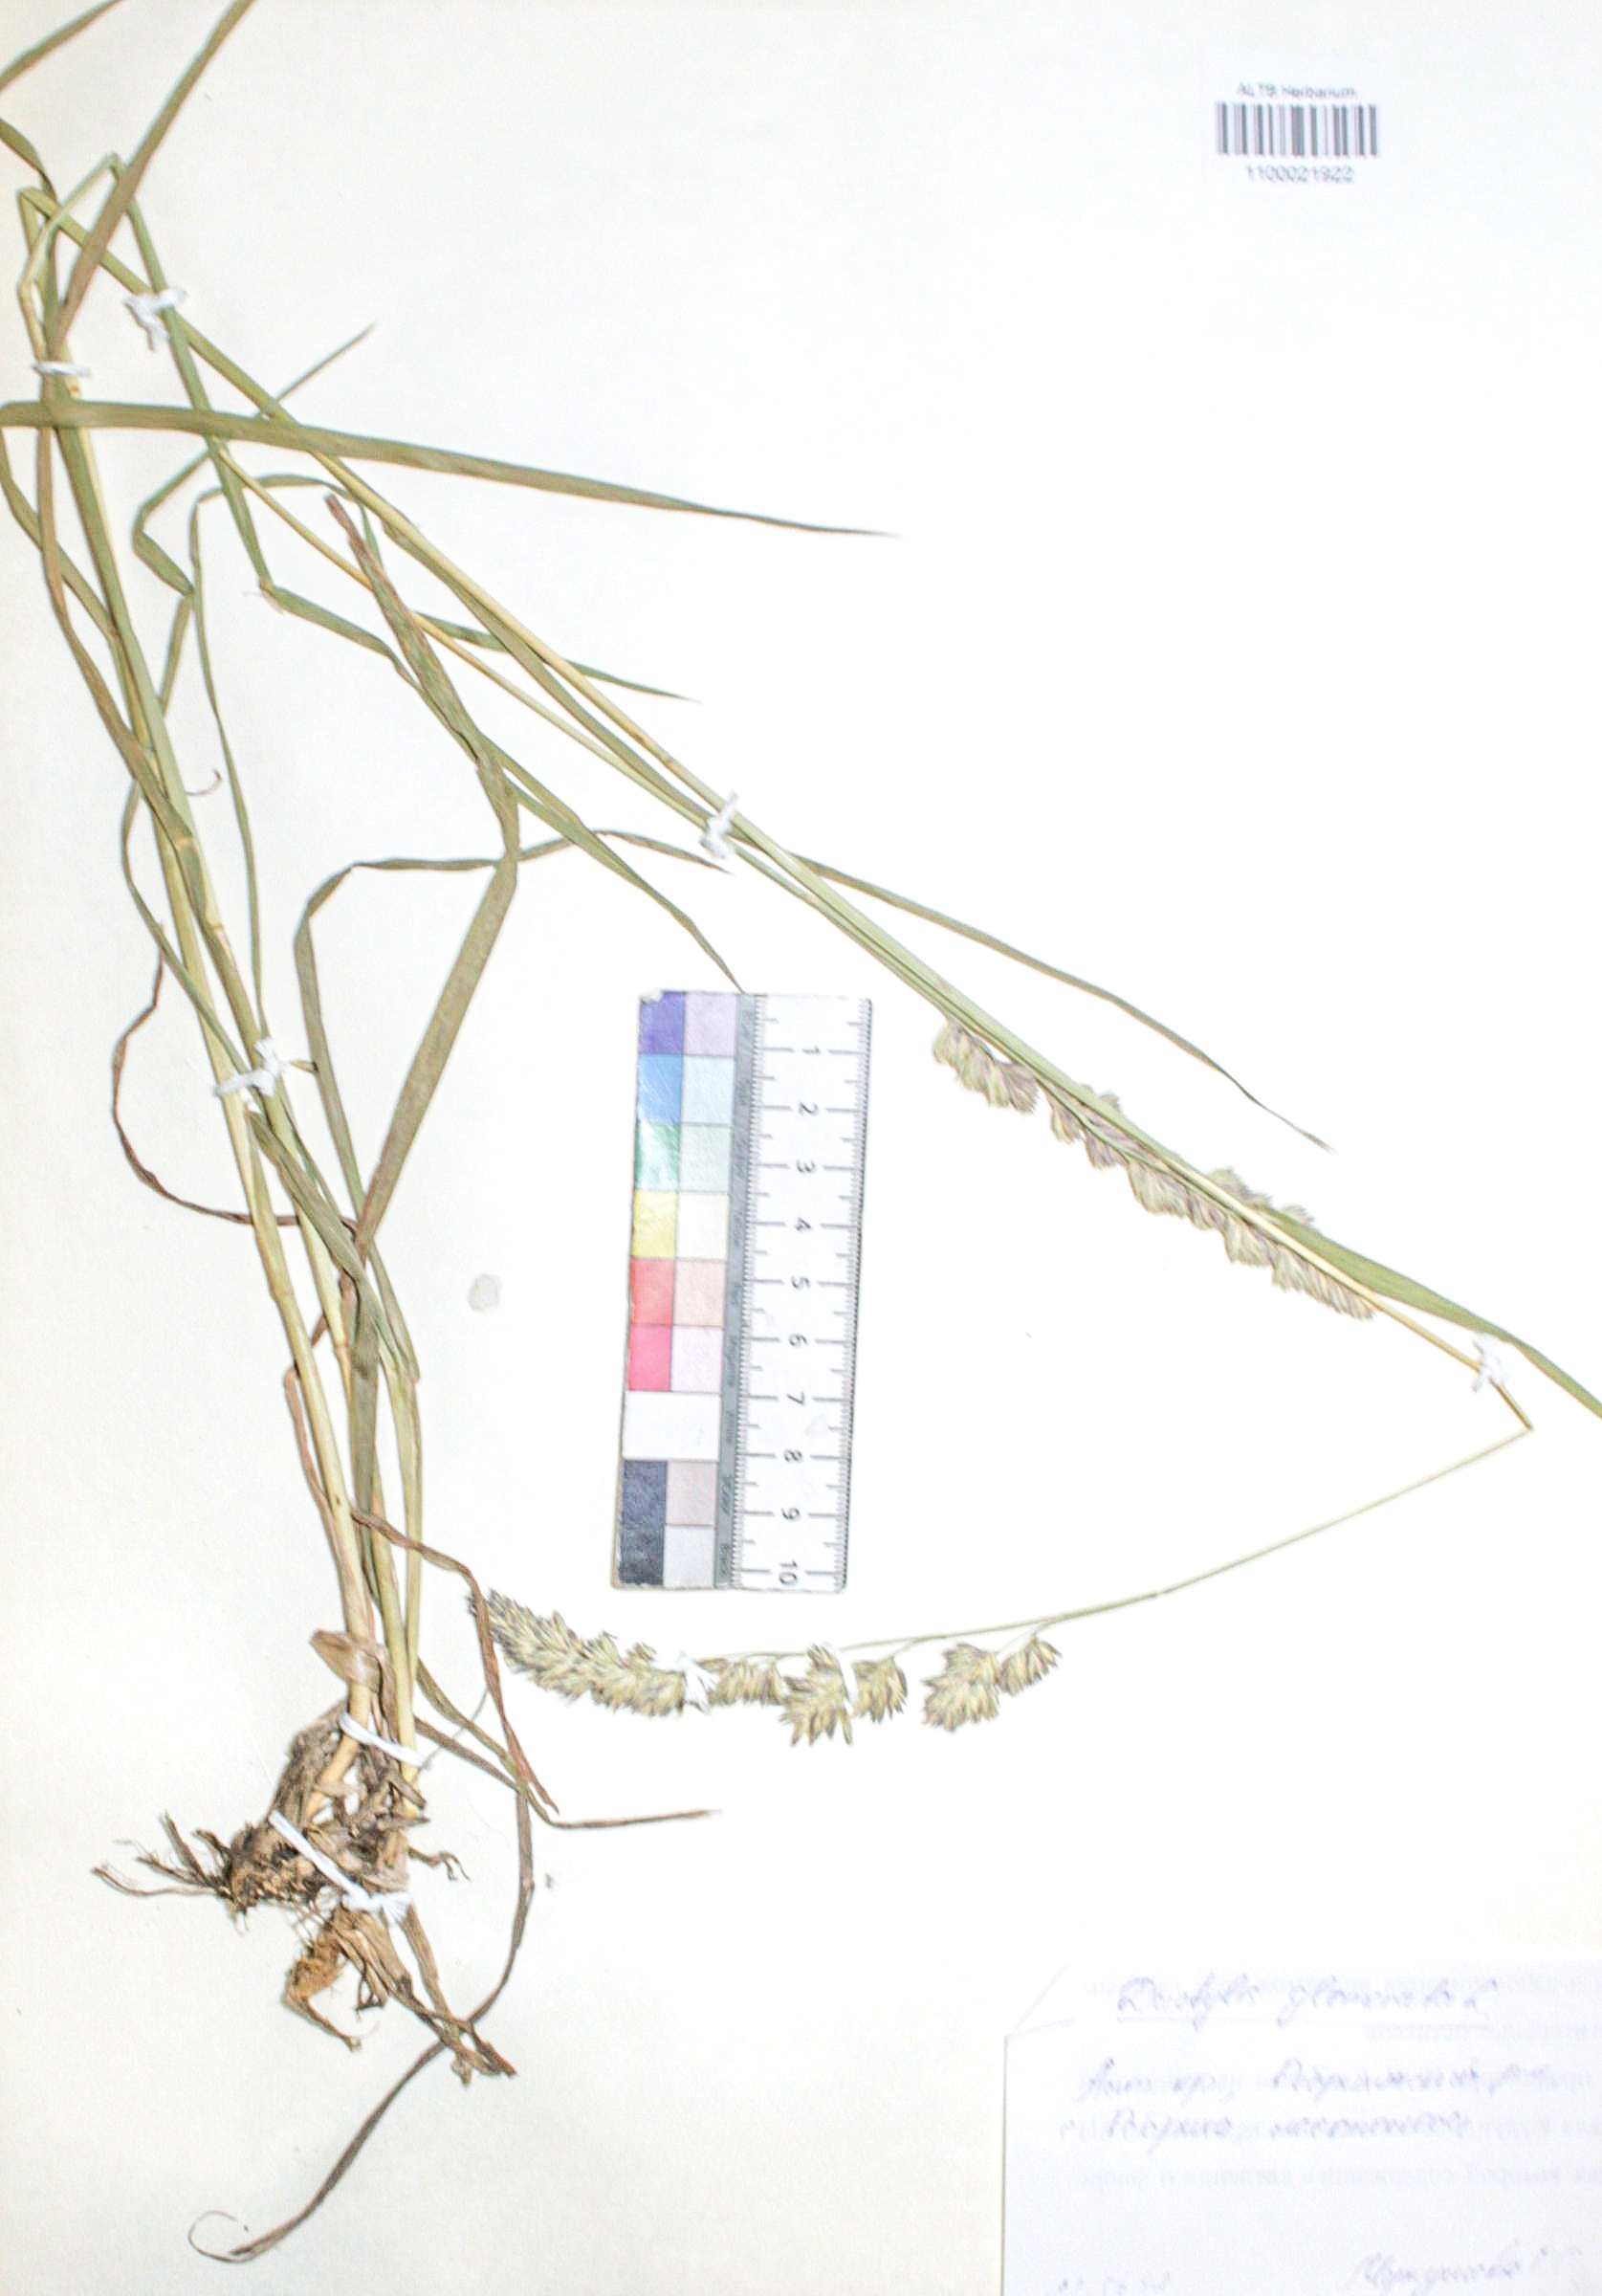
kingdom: Plantae
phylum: Tracheophyta
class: Liliopsida
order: Poales
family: Poaceae
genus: Dactylis
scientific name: Dactylis glomerata
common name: Orchardgrass
